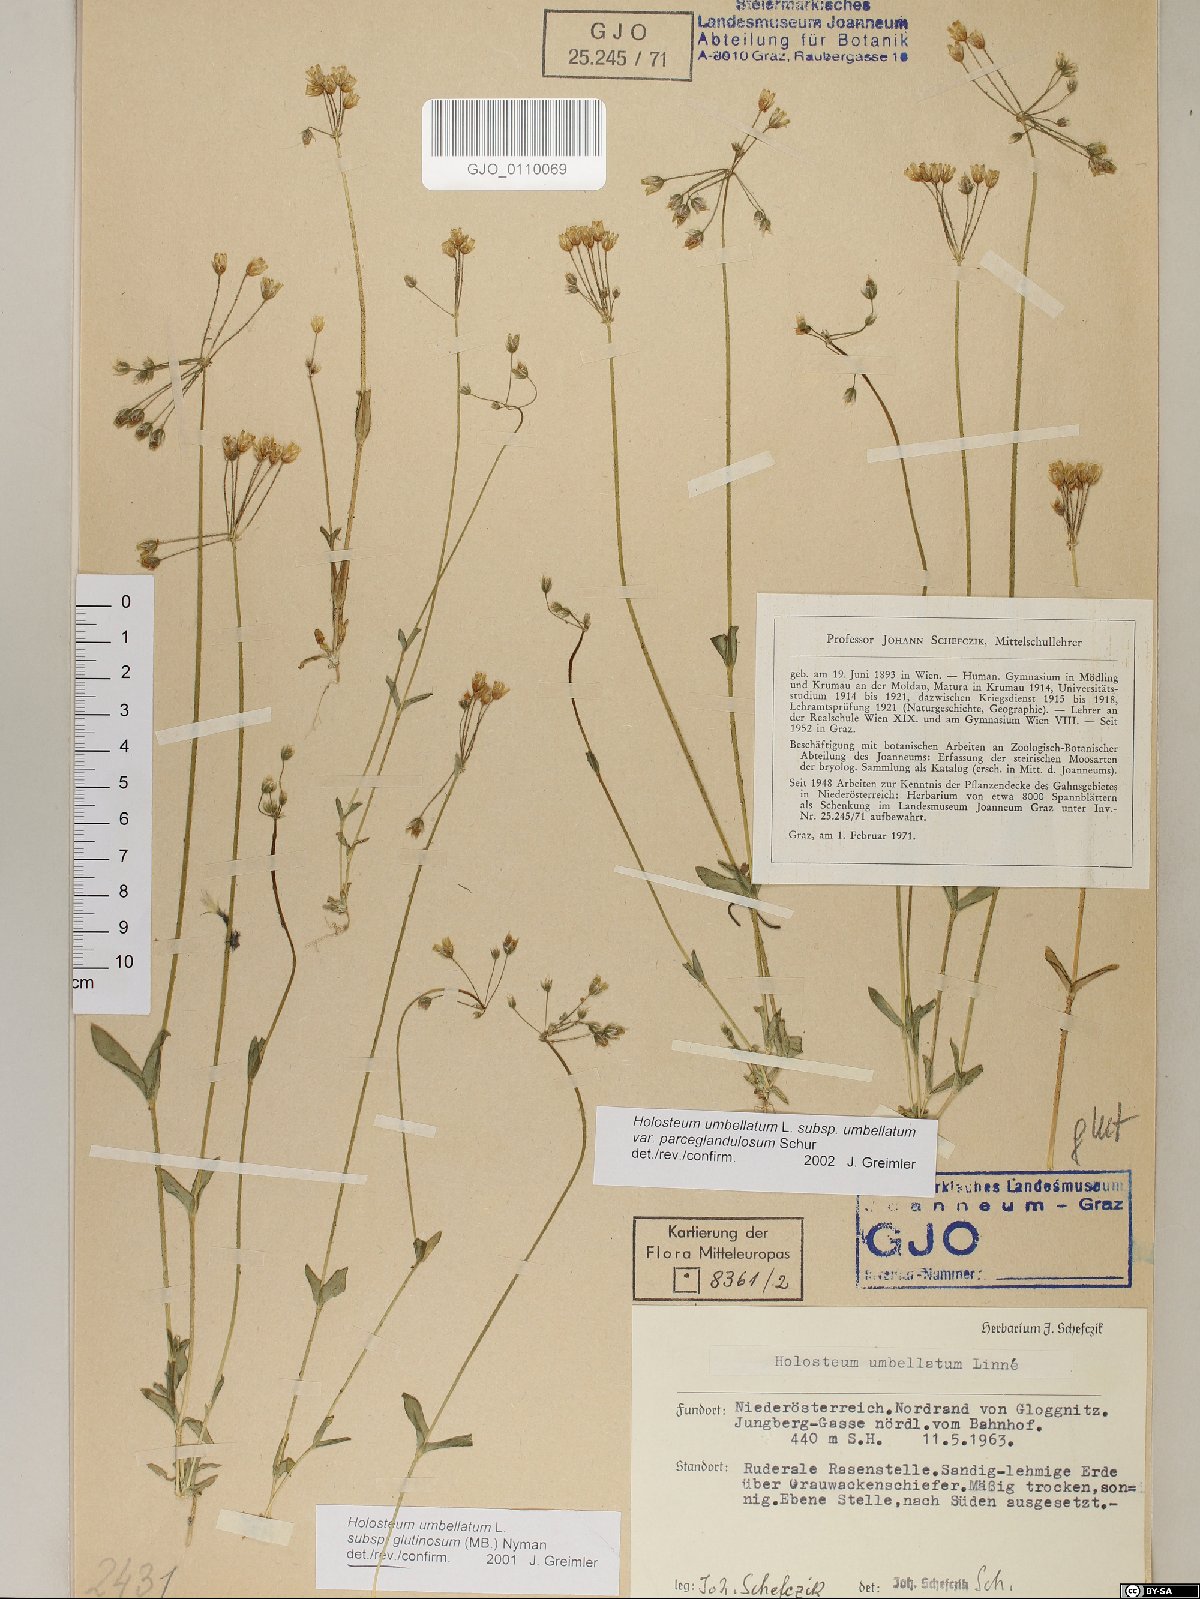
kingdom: Plantae
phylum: Tracheophyta
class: Magnoliopsida
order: Caryophyllales
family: Caryophyllaceae
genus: Holosteum
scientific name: Holosteum umbellatum
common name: Jagged chickweed
